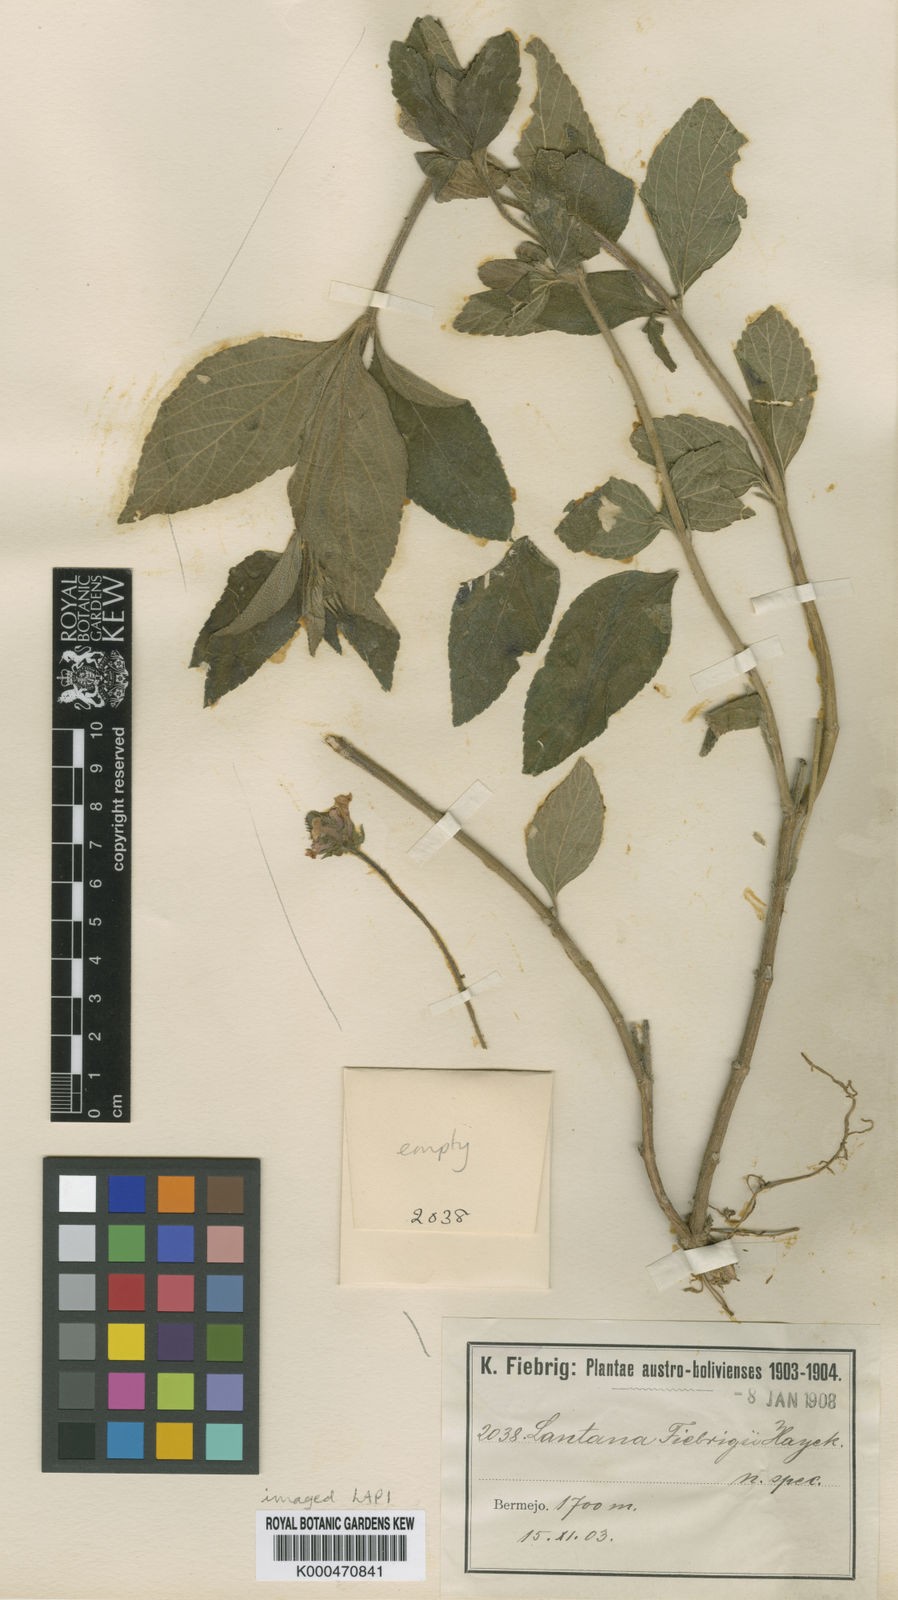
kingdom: Plantae
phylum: Tracheophyta
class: Magnoliopsida
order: Lamiales
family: Verbenaceae
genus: Lantana
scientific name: Lantana trifolia
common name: Sweet-sage
